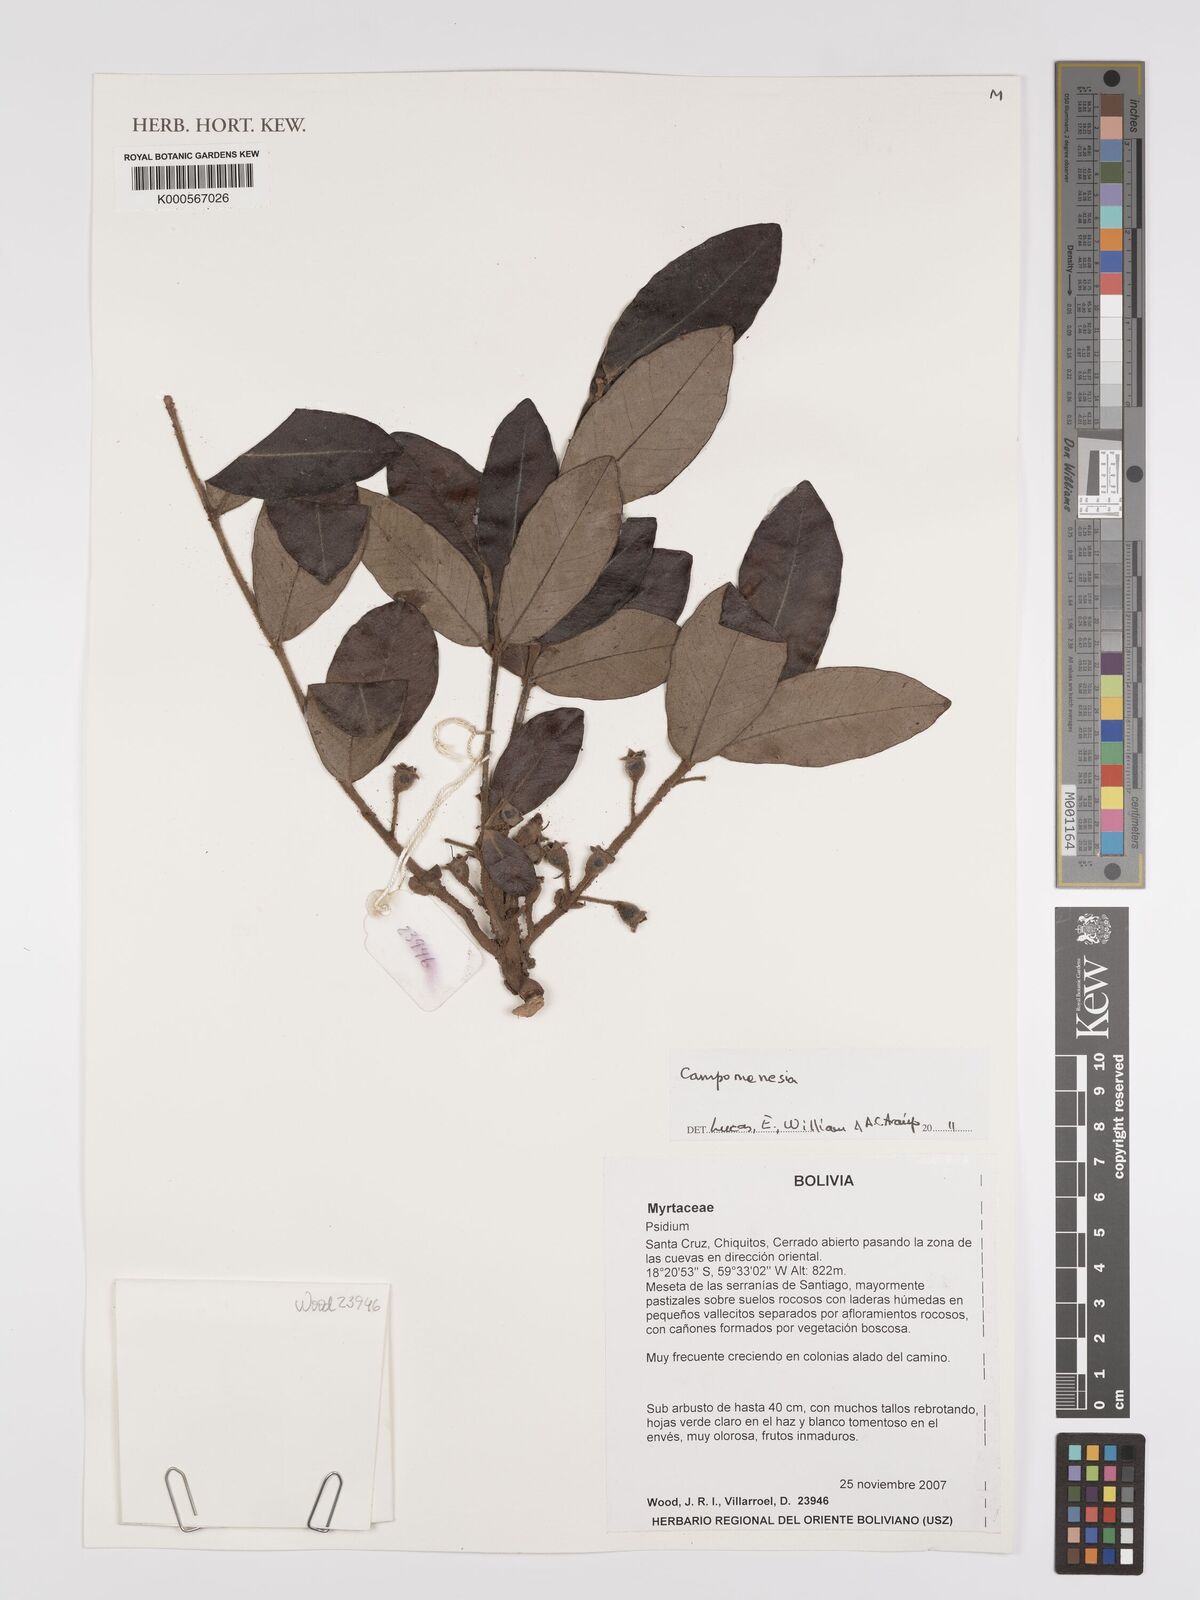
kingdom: Plantae
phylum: Tracheophyta
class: Magnoliopsida
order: Myrtales
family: Myrtaceae
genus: Campomanesia
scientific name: Campomanesia
